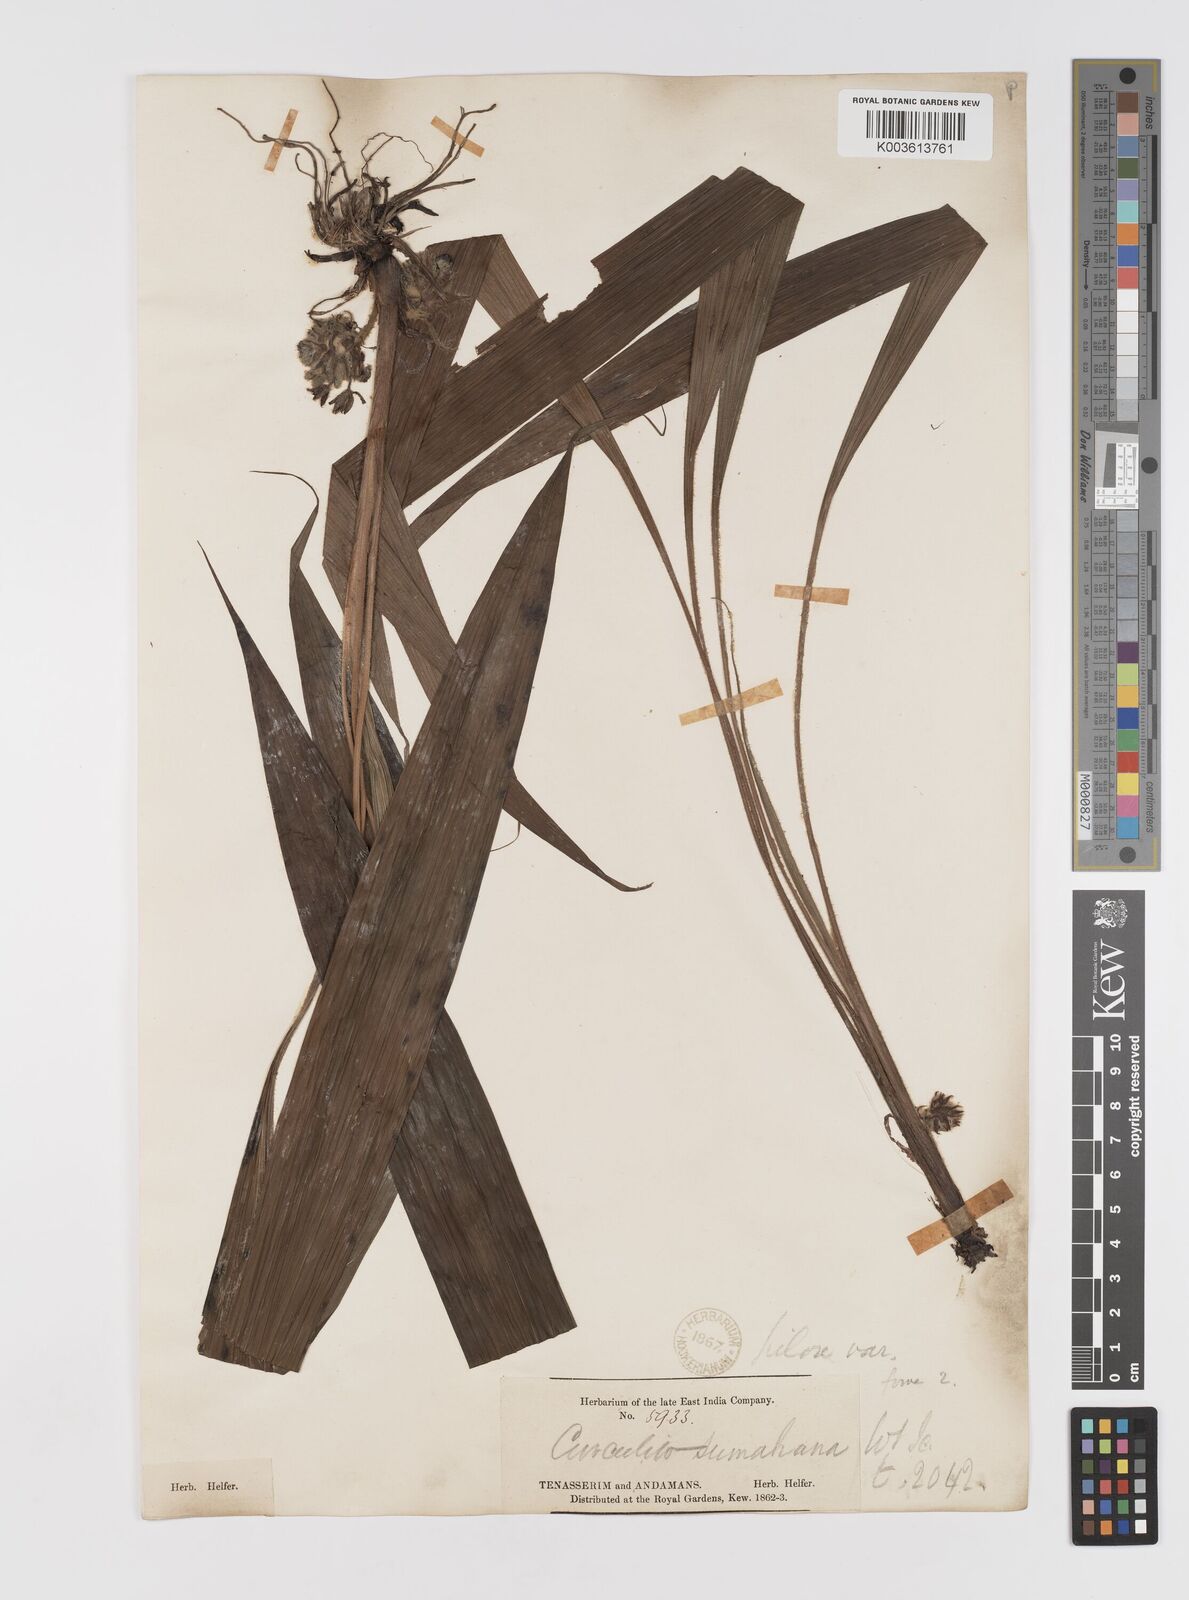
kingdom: Plantae
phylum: Tracheophyta
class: Liliopsida
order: Asparagales
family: Hypoxidaceae
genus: Curculigo
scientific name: Curculigo latifolia
